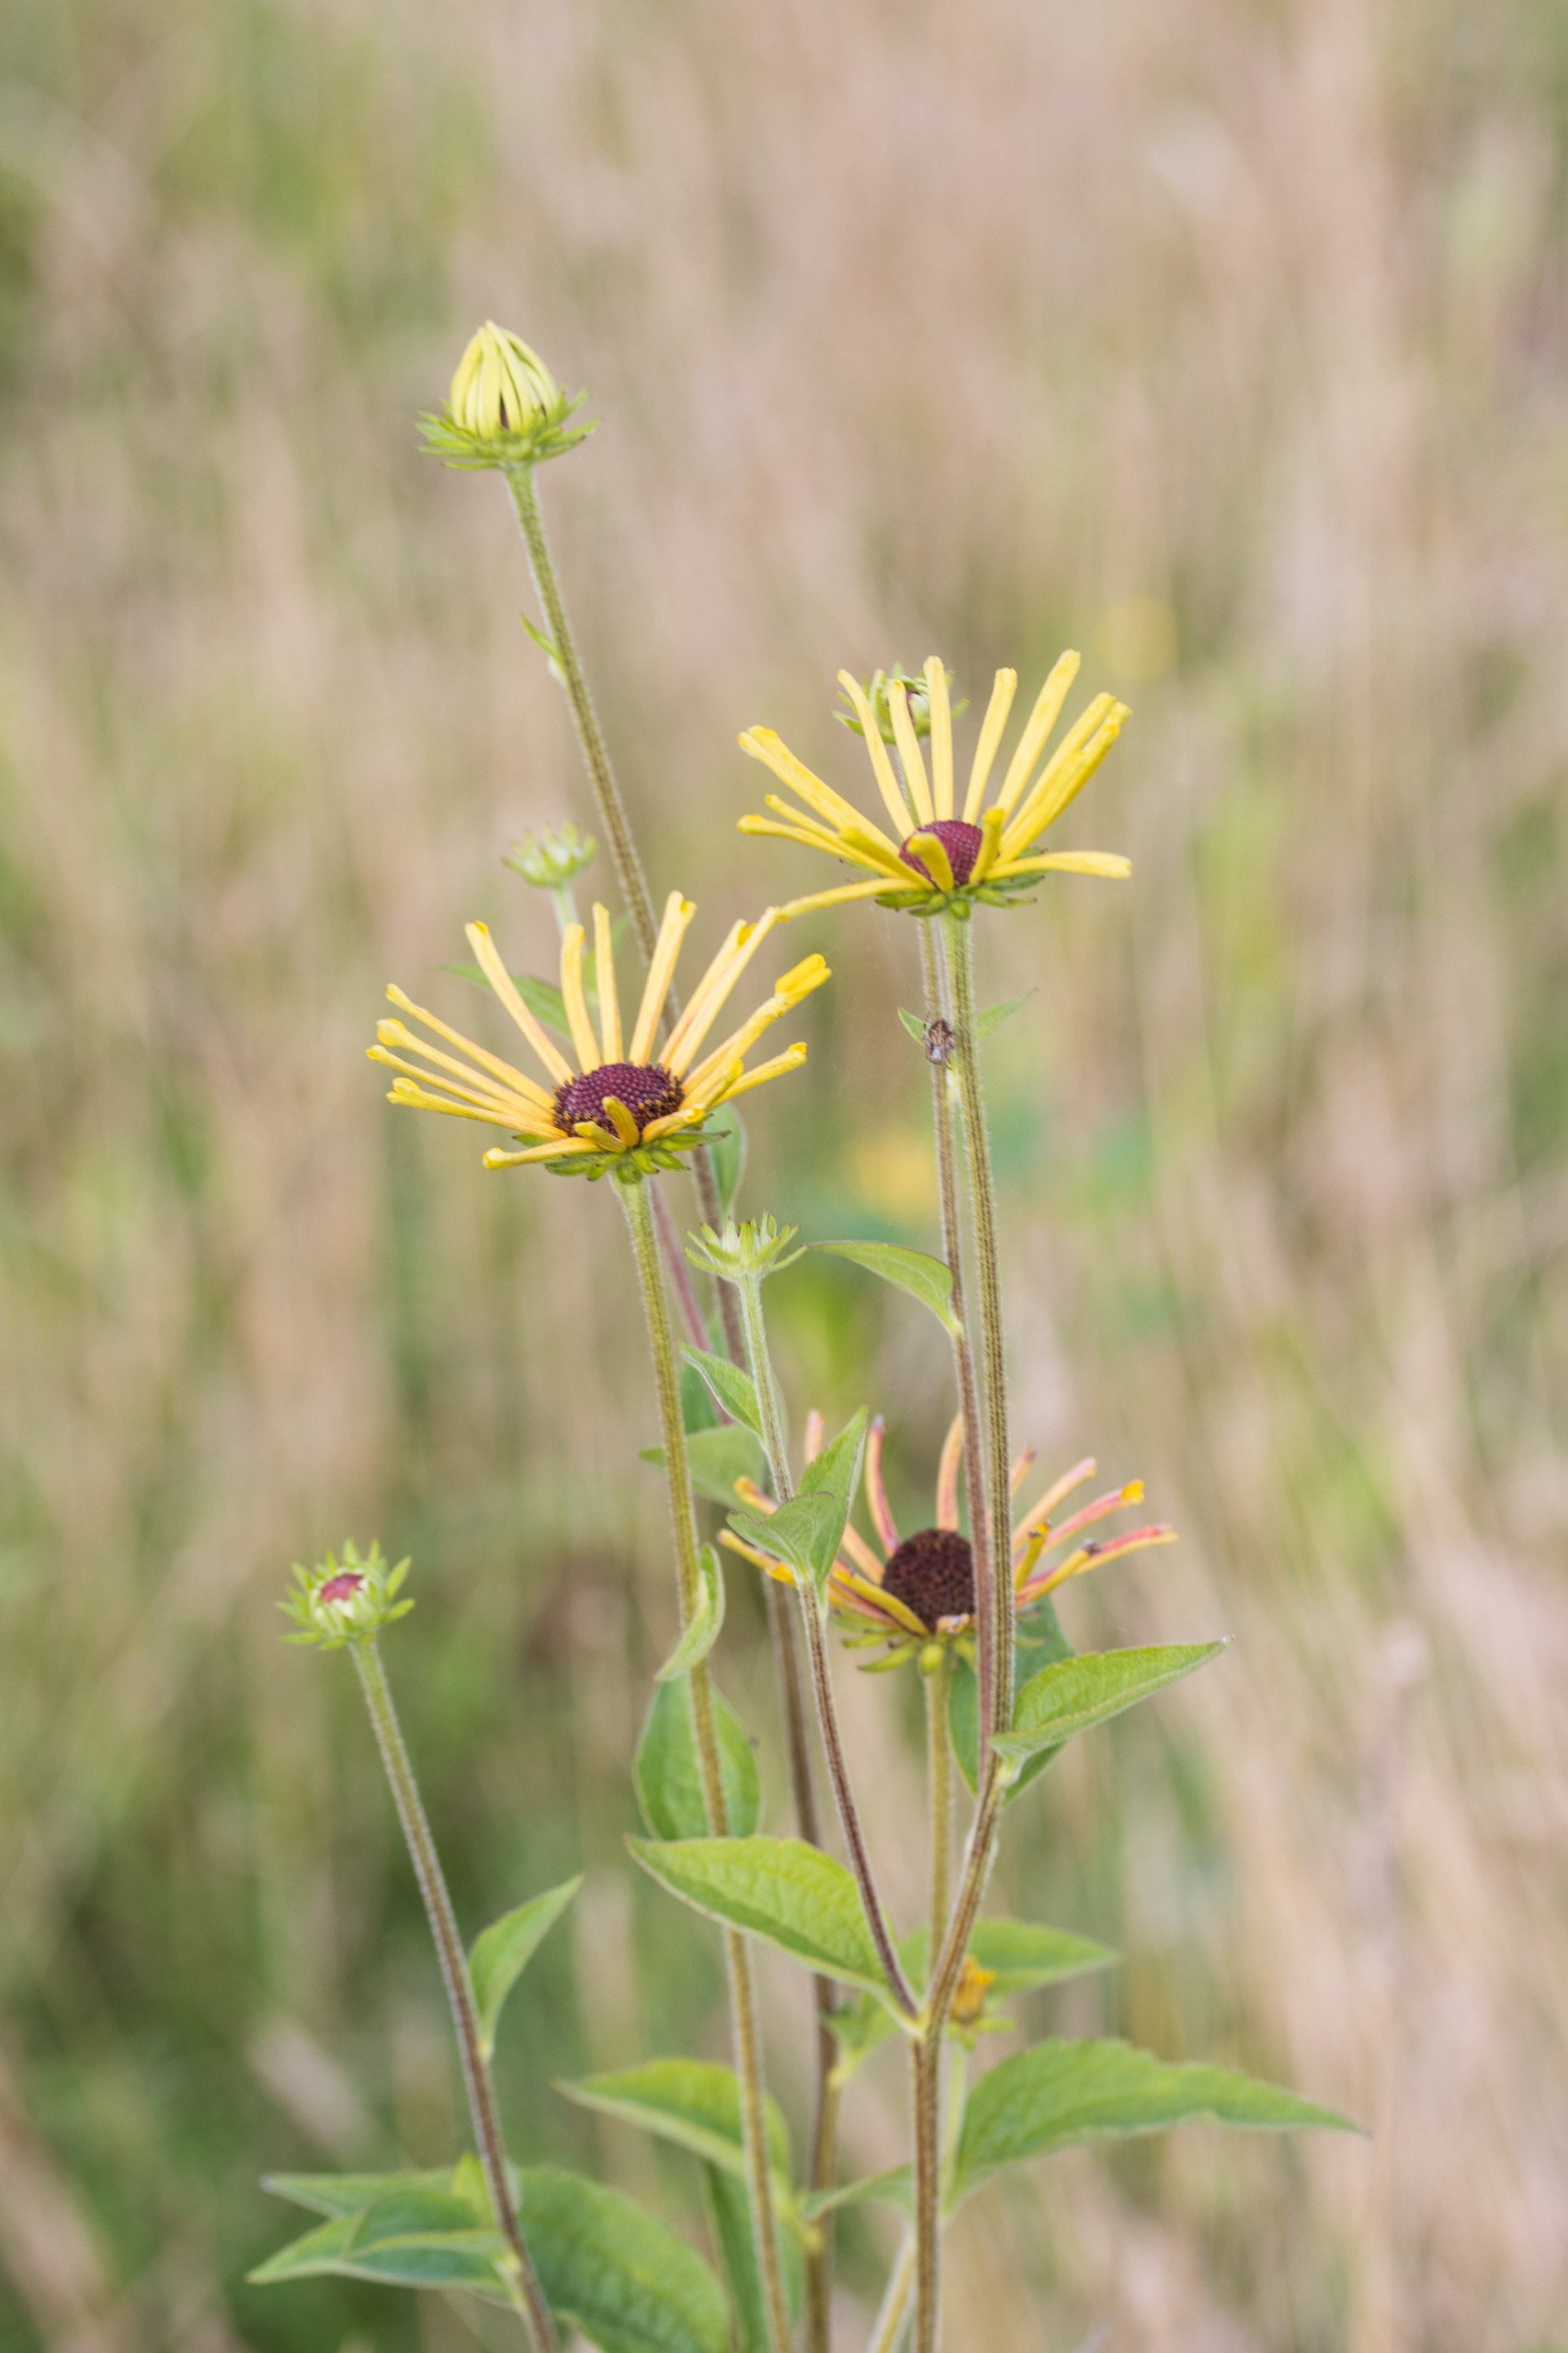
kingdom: Plantae
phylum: Tracheophyta
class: Magnoliopsida
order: Asterales
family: Asteraceae
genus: Rudbeckia
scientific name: Rudbeckia hirta
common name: Håret solhat
